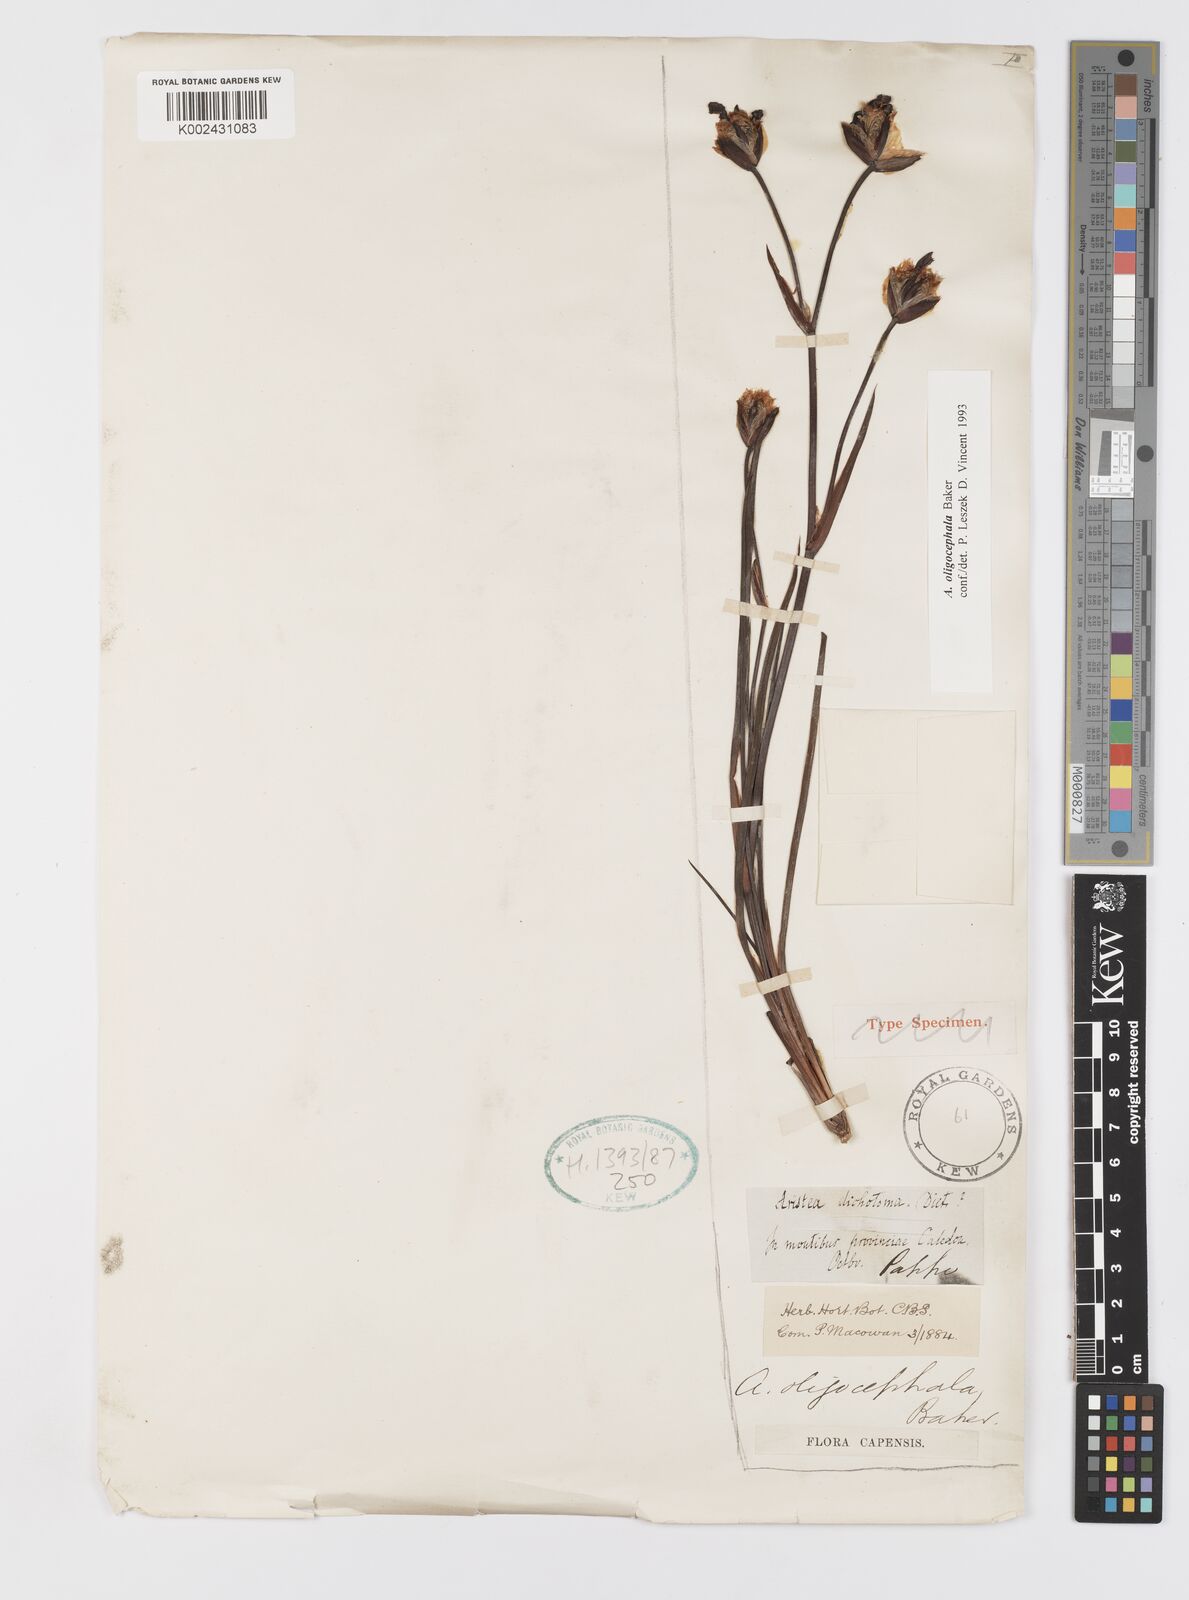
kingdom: Plantae
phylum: Tracheophyta
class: Liliopsida
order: Asparagales
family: Iridaceae
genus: Aristea
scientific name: Aristea oligocephala
